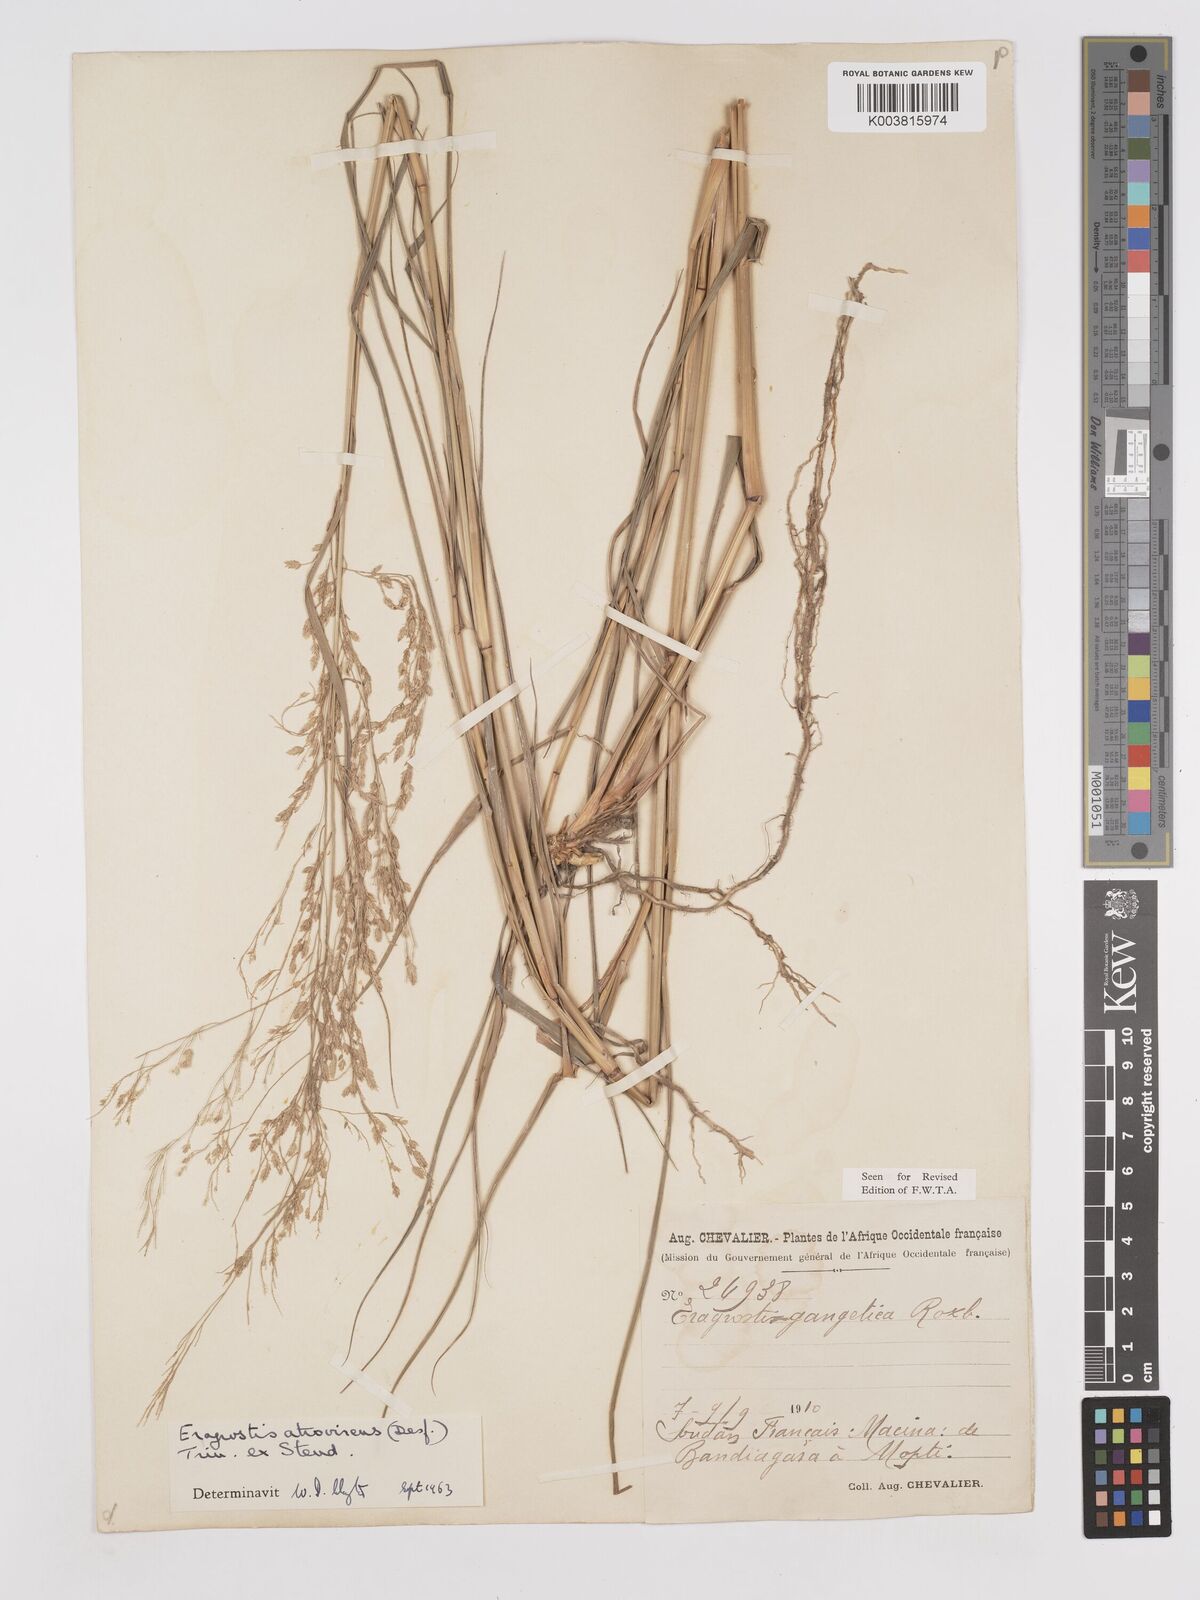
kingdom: Plantae
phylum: Tracheophyta
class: Liliopsida
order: Poales
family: Poaceae
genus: Eragrostis
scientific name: Eragrostis atrovirens
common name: Thalia lovegrass
